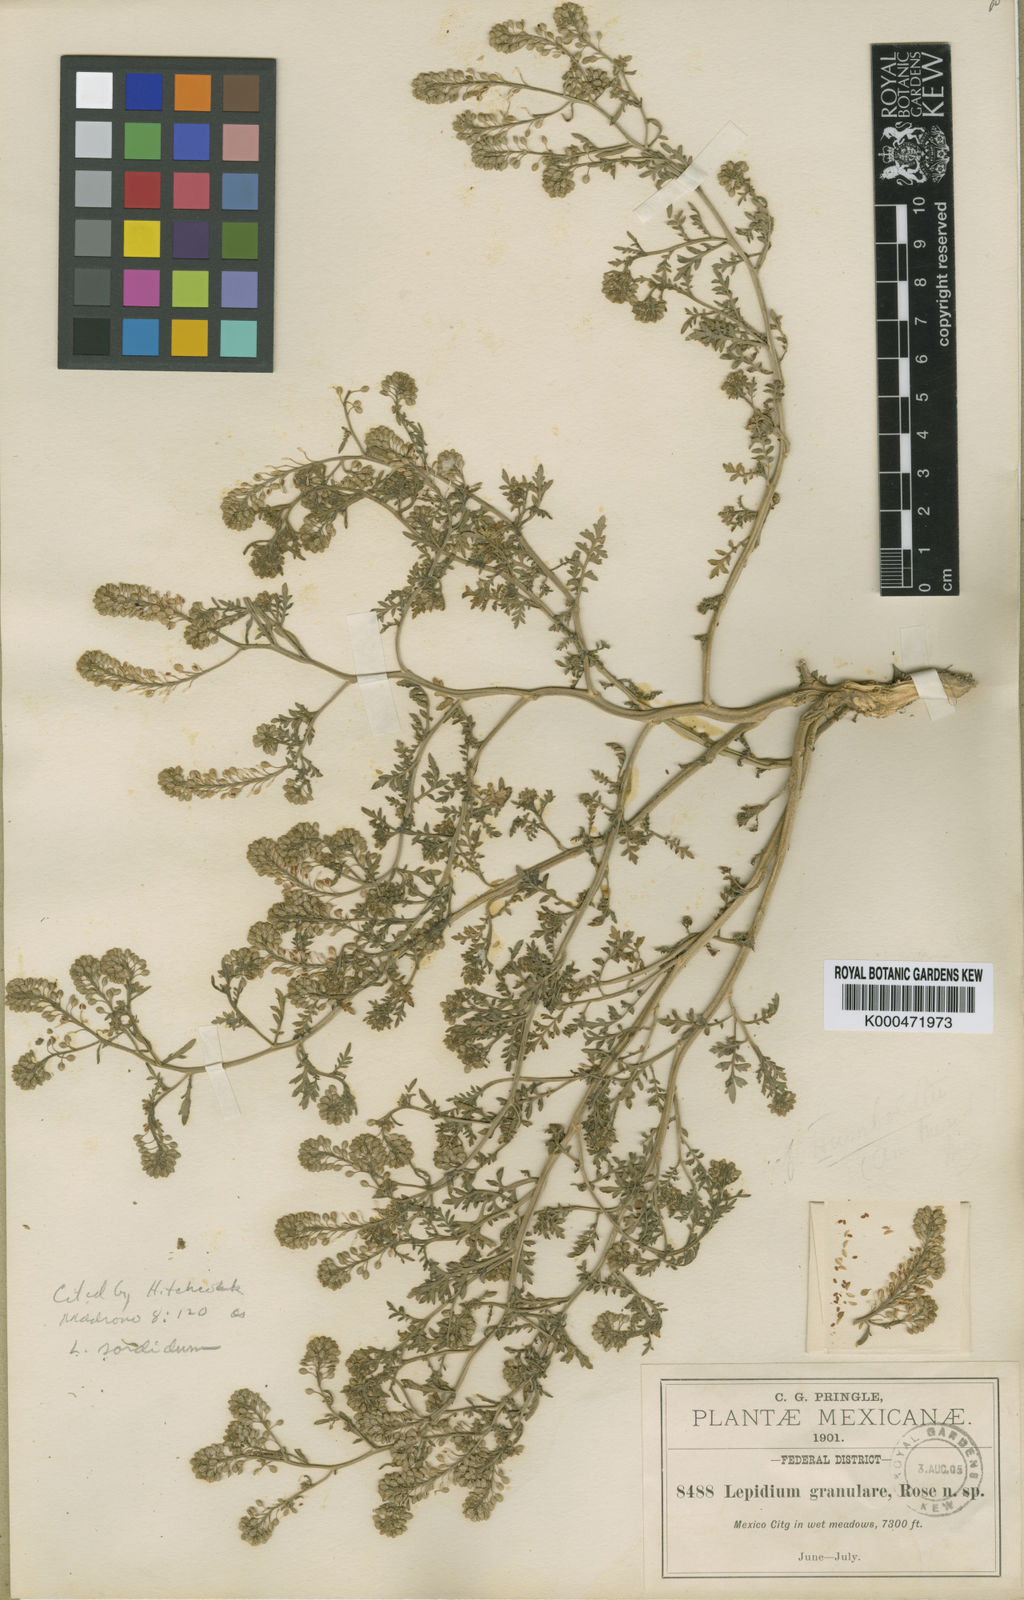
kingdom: Plantae
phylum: Tracheophyta
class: Magnoliopsida
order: Brassicales
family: Brassicaceae
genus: Lepidium
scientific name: Lepidium sordidum
